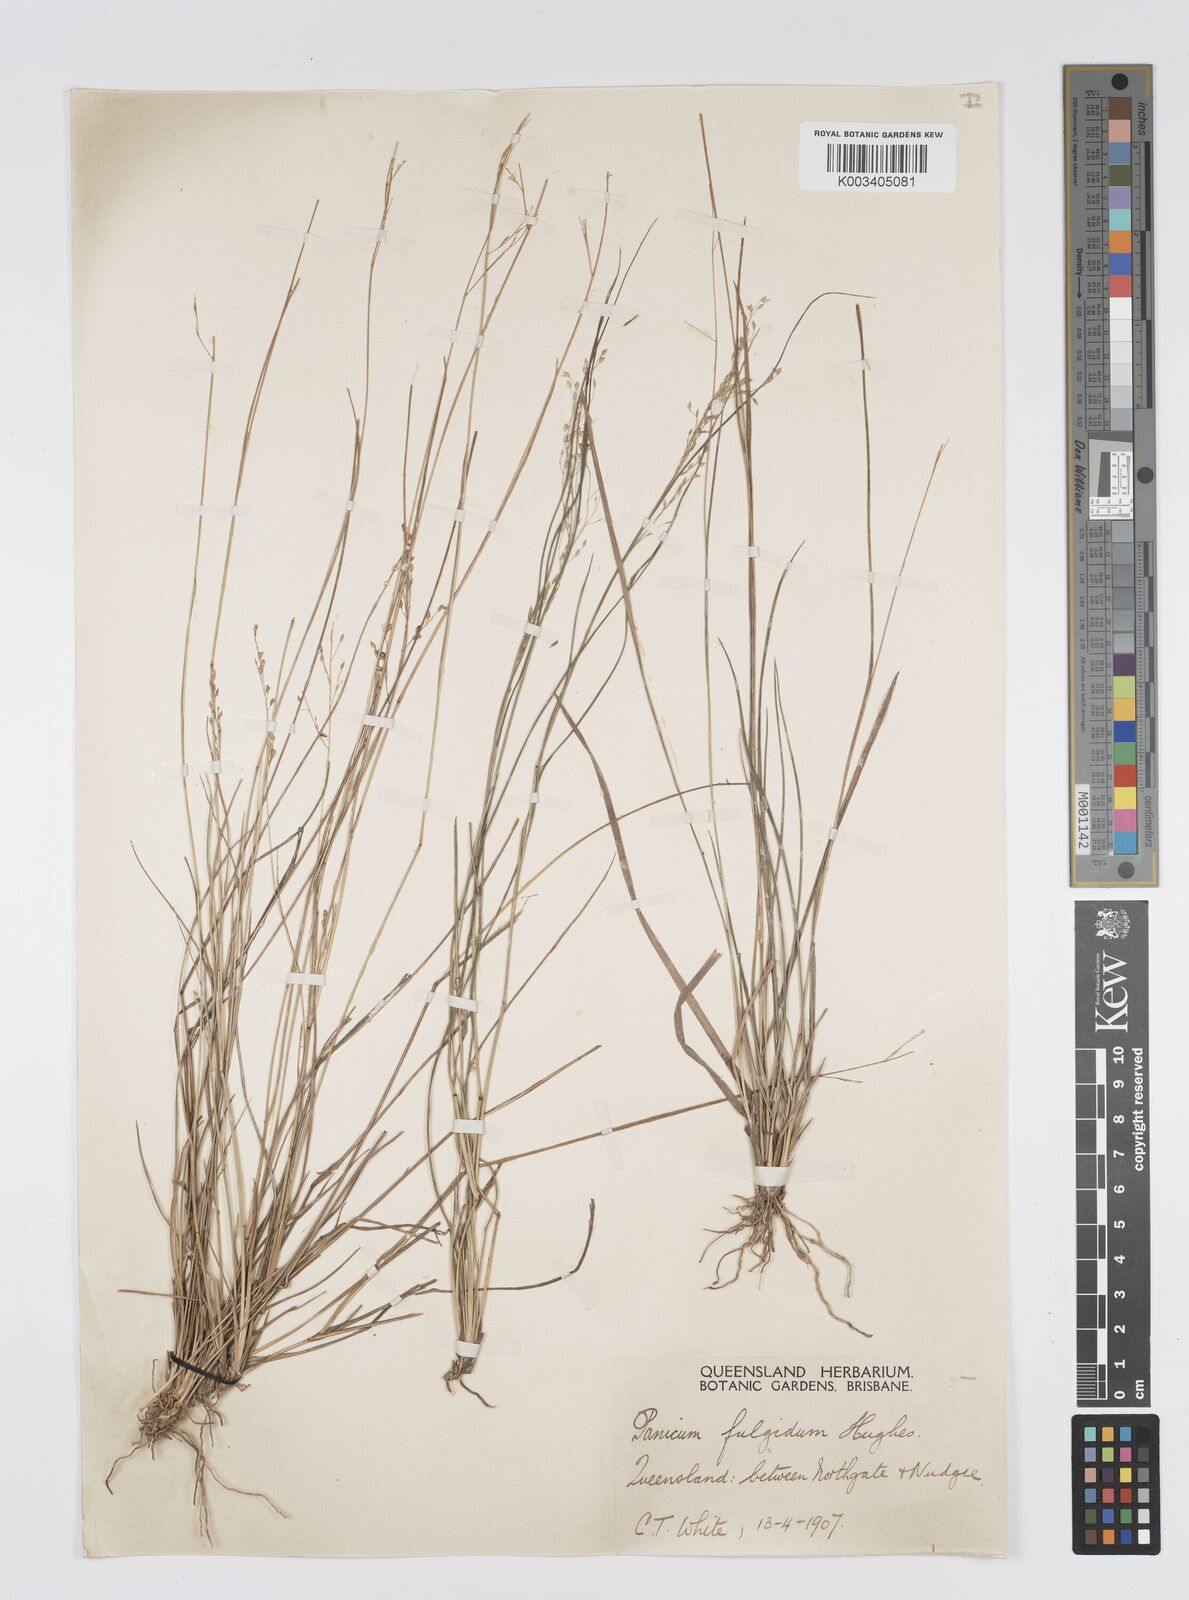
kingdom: Plantae
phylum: Tracheophyta
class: Liliopsida
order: Poales
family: Poaceae
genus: Panicum
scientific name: Panicum simile
